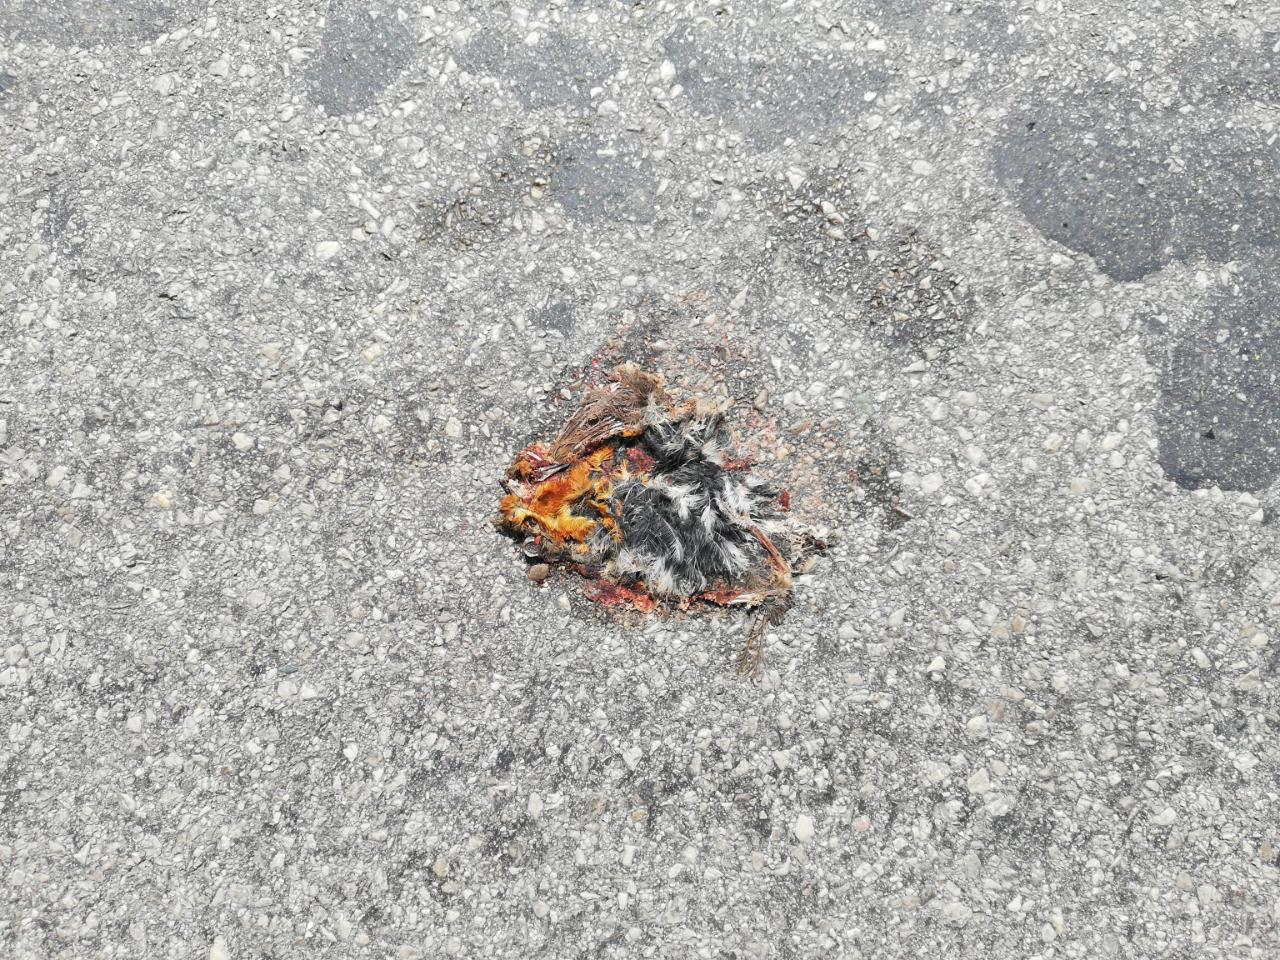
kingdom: Animalia
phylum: Chordata
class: Aves
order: Passeriformes
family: Muscicapidae
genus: Erithacus
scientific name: Erithacus rubecula
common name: European robin
